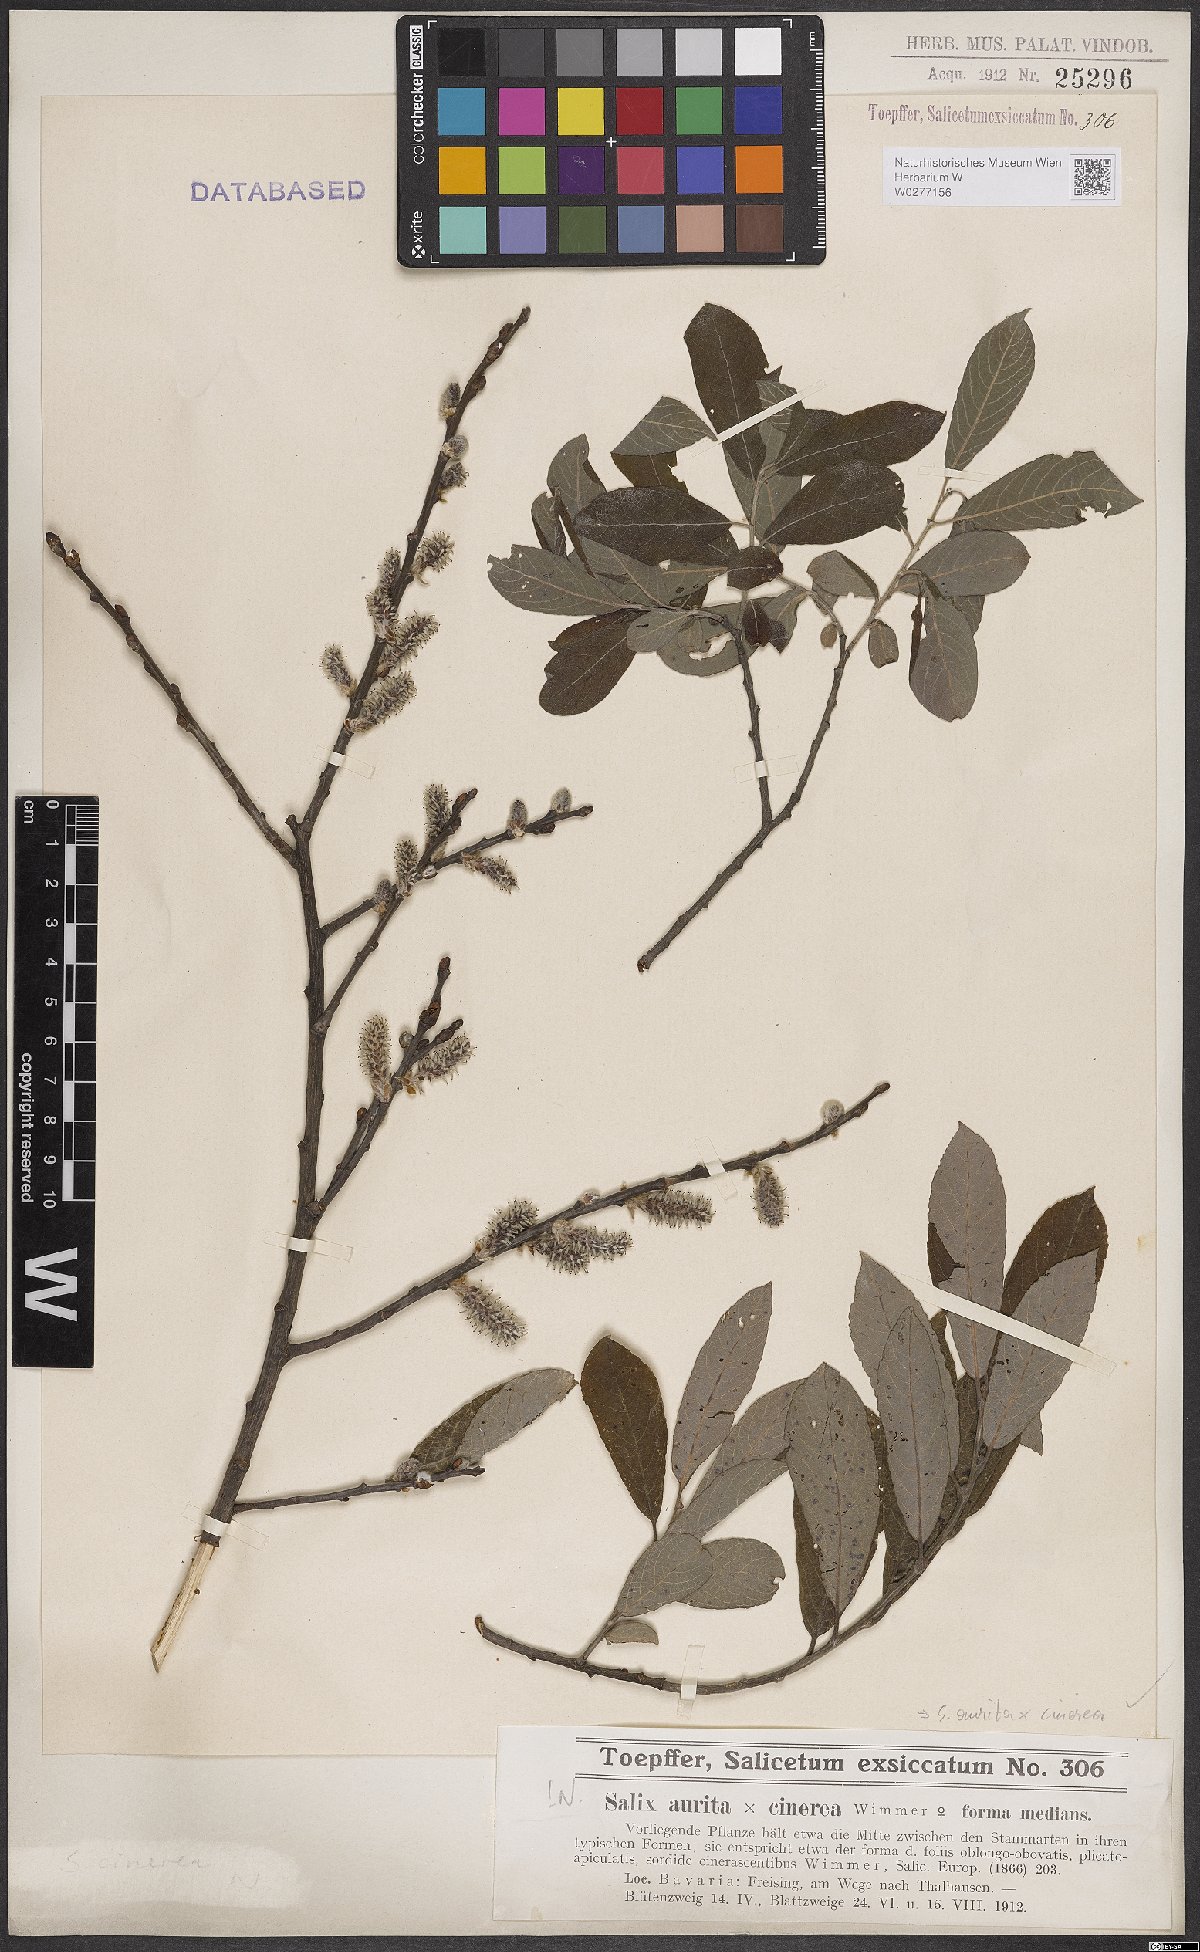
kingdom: Plantae
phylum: Tracheophyta
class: Magnoliopsida
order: Malpighiales
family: Salicaceae
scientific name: Salicaceae
